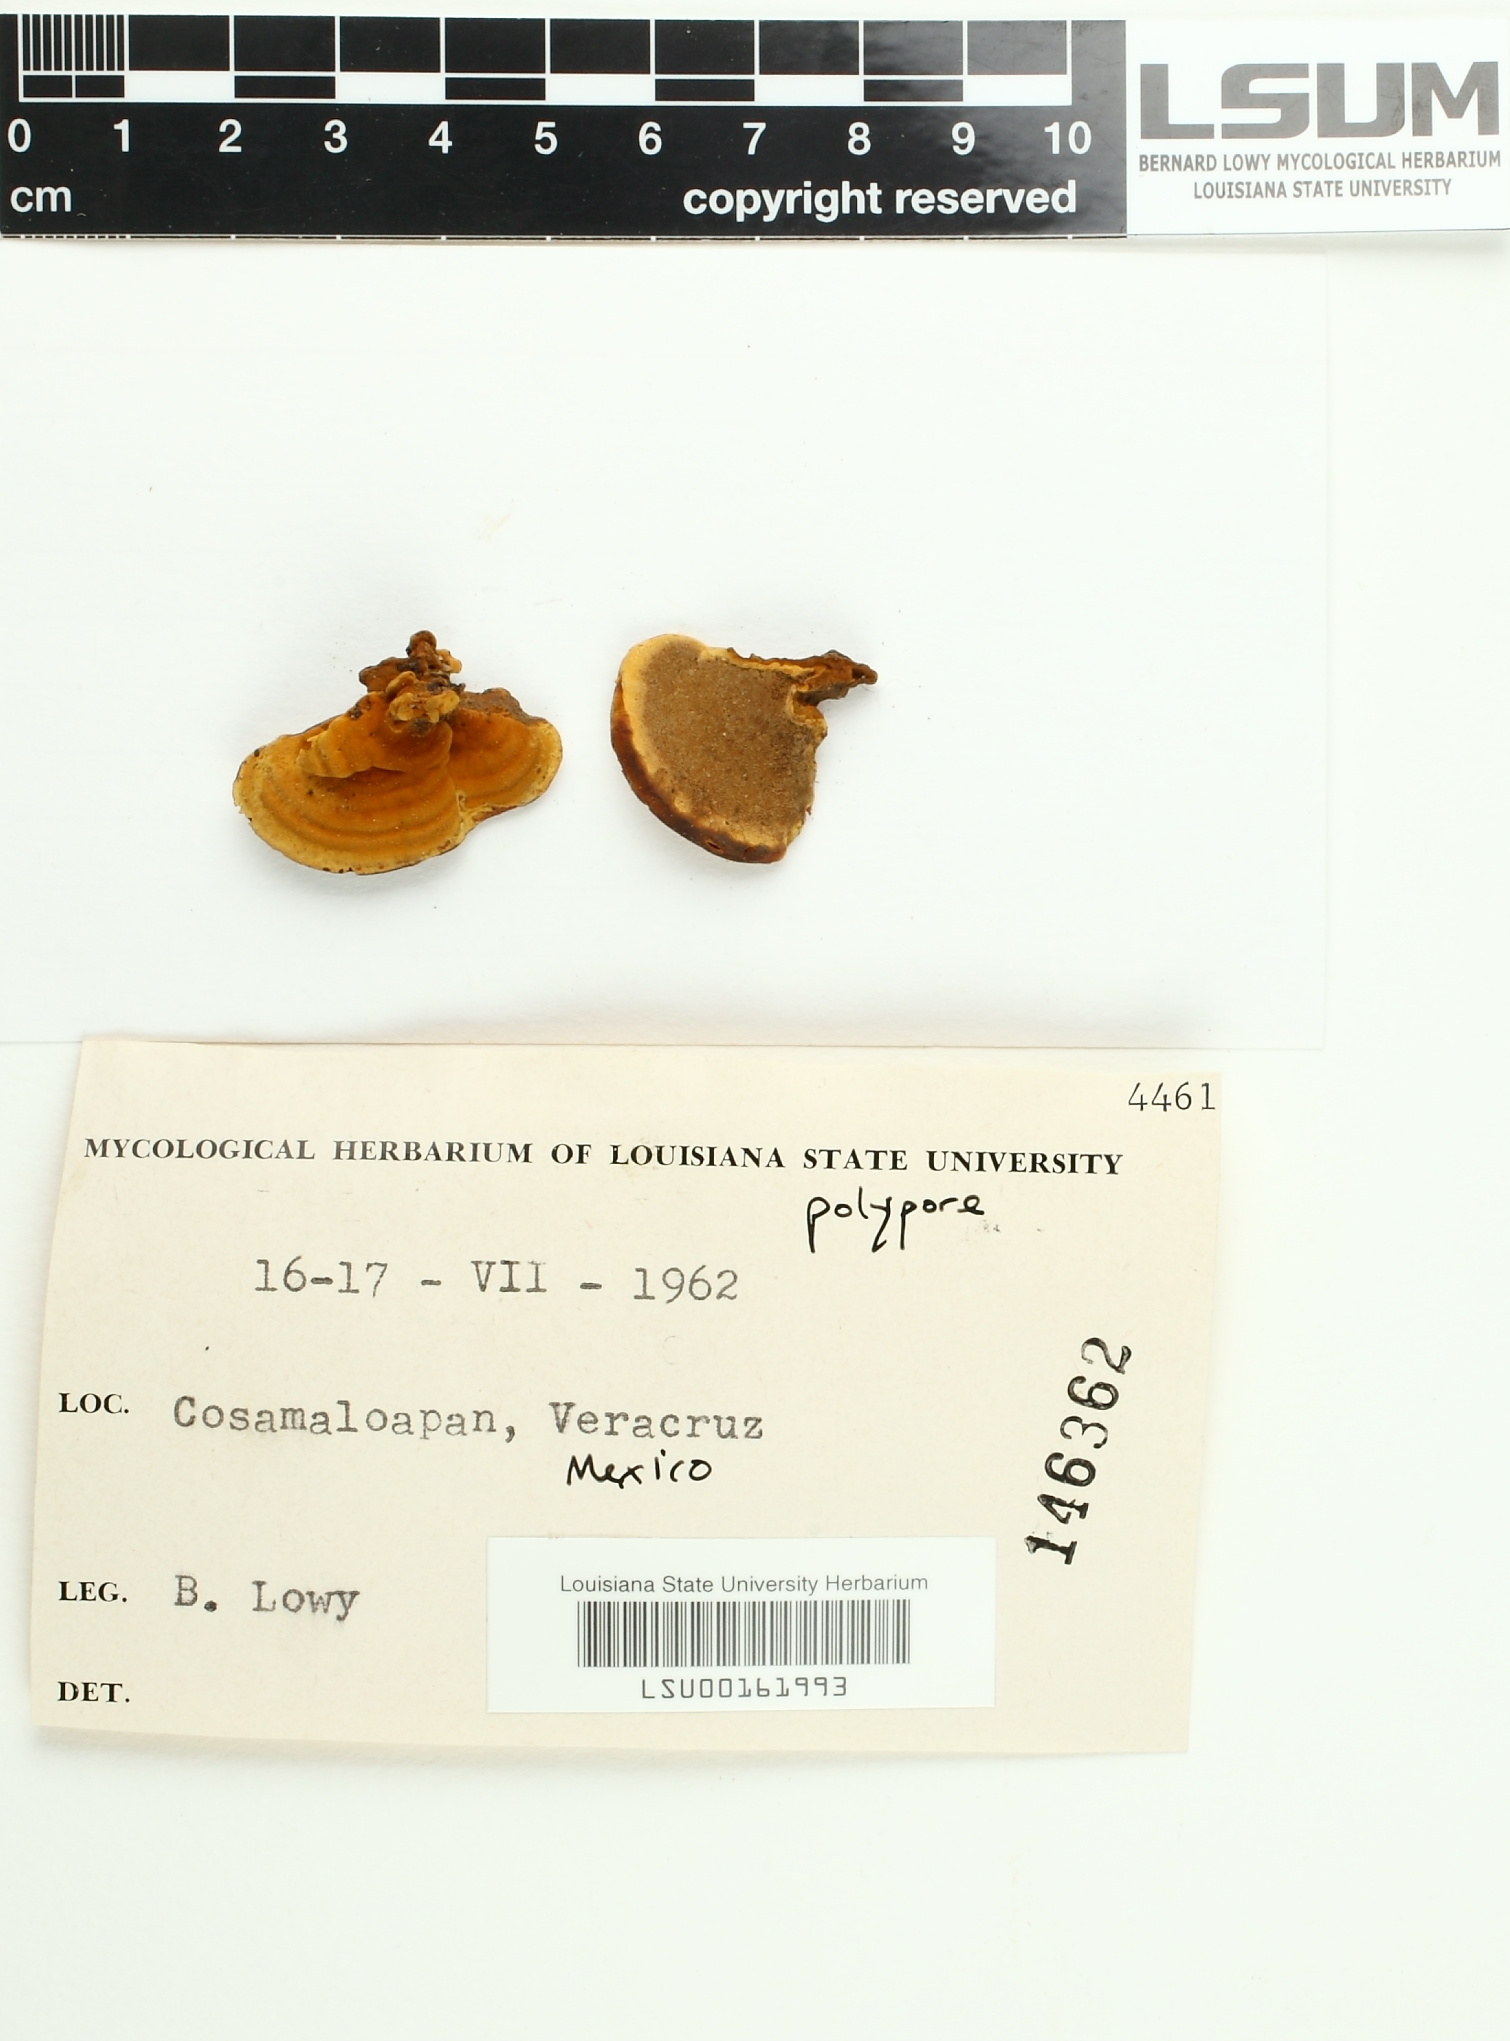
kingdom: Fungi
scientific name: Fungi
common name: Fungi
